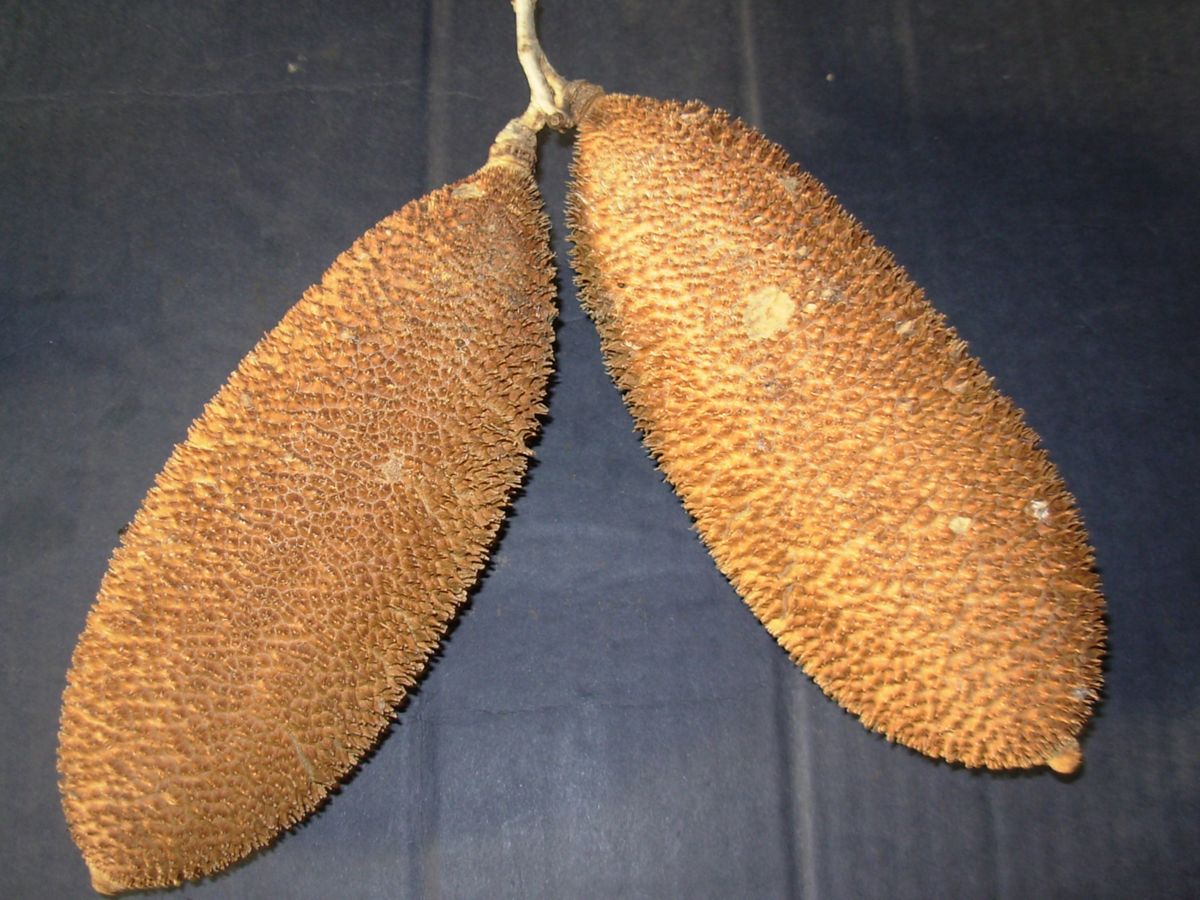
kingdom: Plantae
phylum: Tracheophyta
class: Magnoliopsida
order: Lamiales
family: Bignoniaceae
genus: Amphilophium
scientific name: Amphilophium crucigerum
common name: Monkey comb
